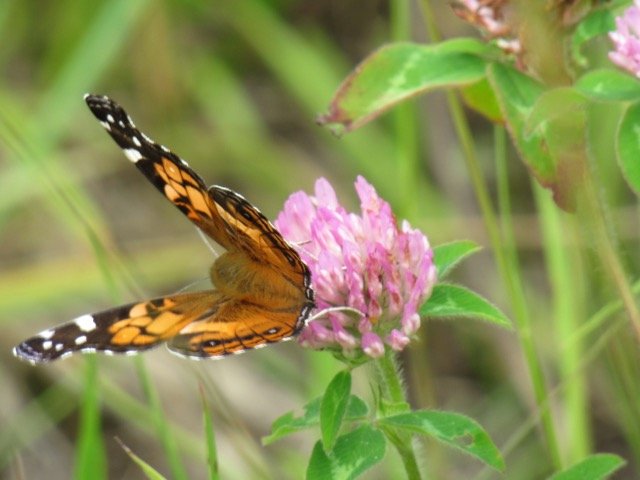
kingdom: Animalia
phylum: Arthropoda
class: Insecta
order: Lepidoptera
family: Nymphalidae
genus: Vanessa
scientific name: Vanessa virginiensis
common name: American Lady
